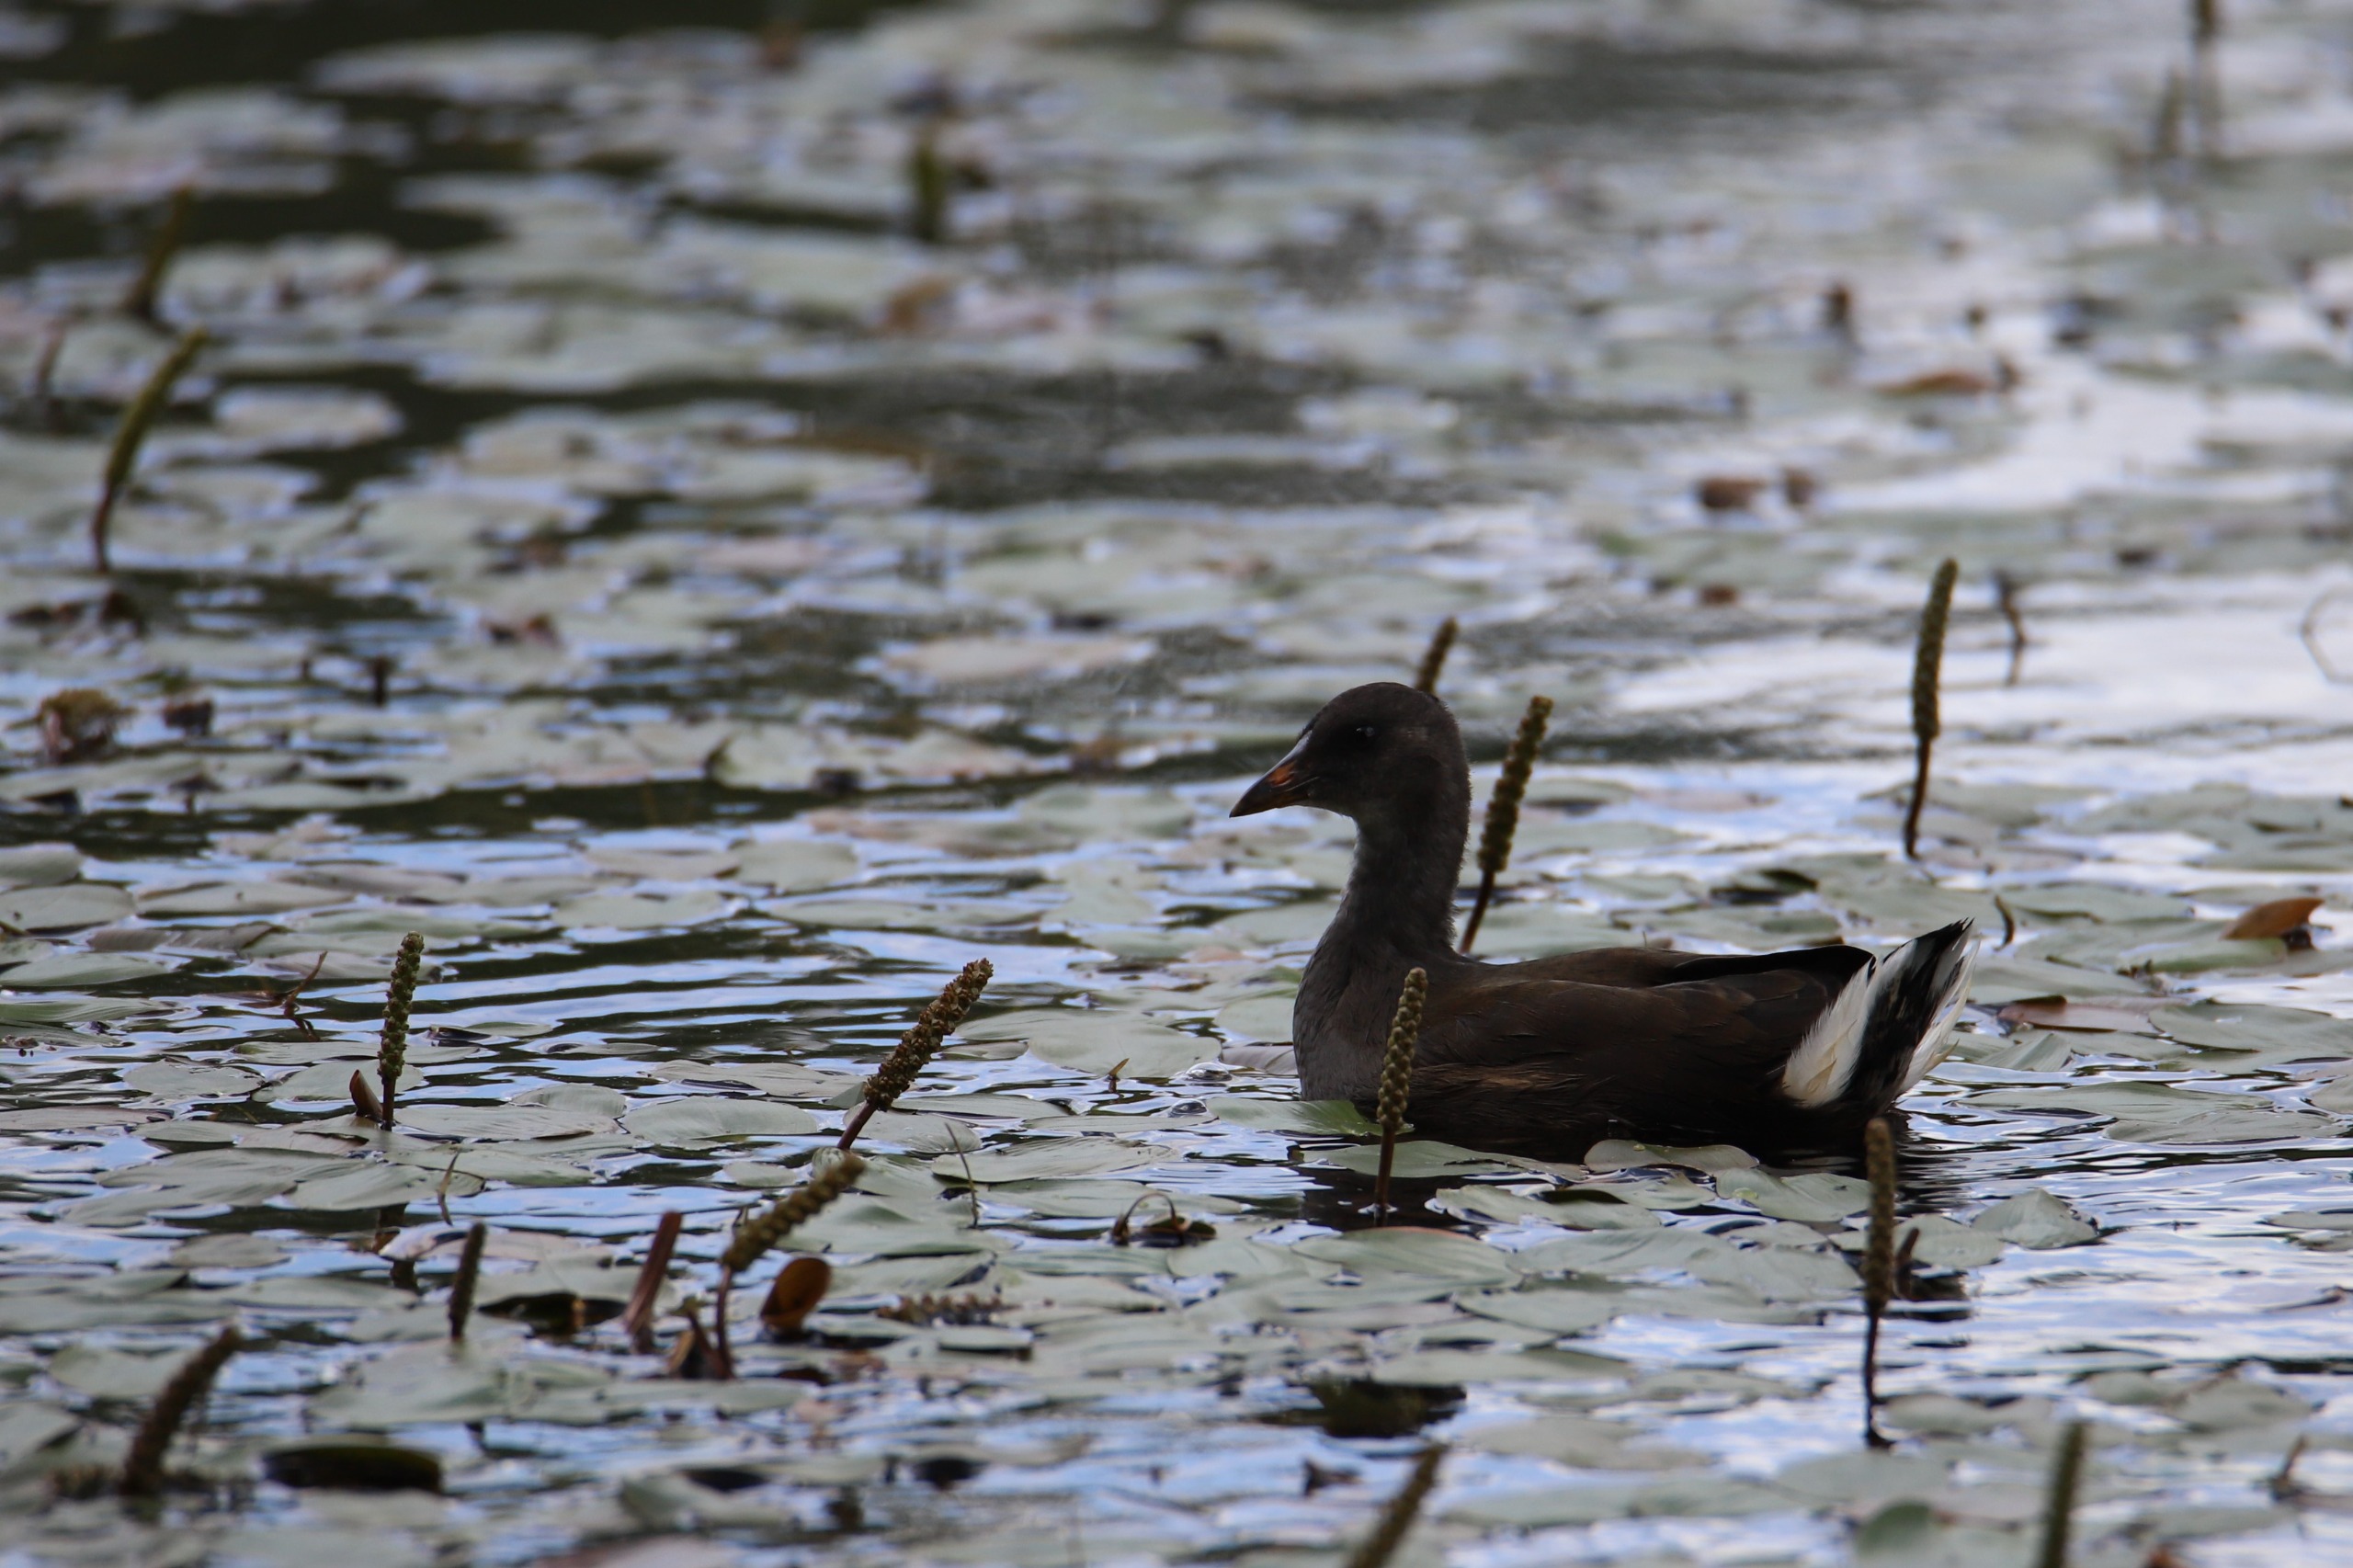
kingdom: Animalia
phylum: Chordata
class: Aves
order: Gruiformes
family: Rallidae
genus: Gallinula
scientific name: Gallinula chloropus
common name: Grønbenet rørhøne
